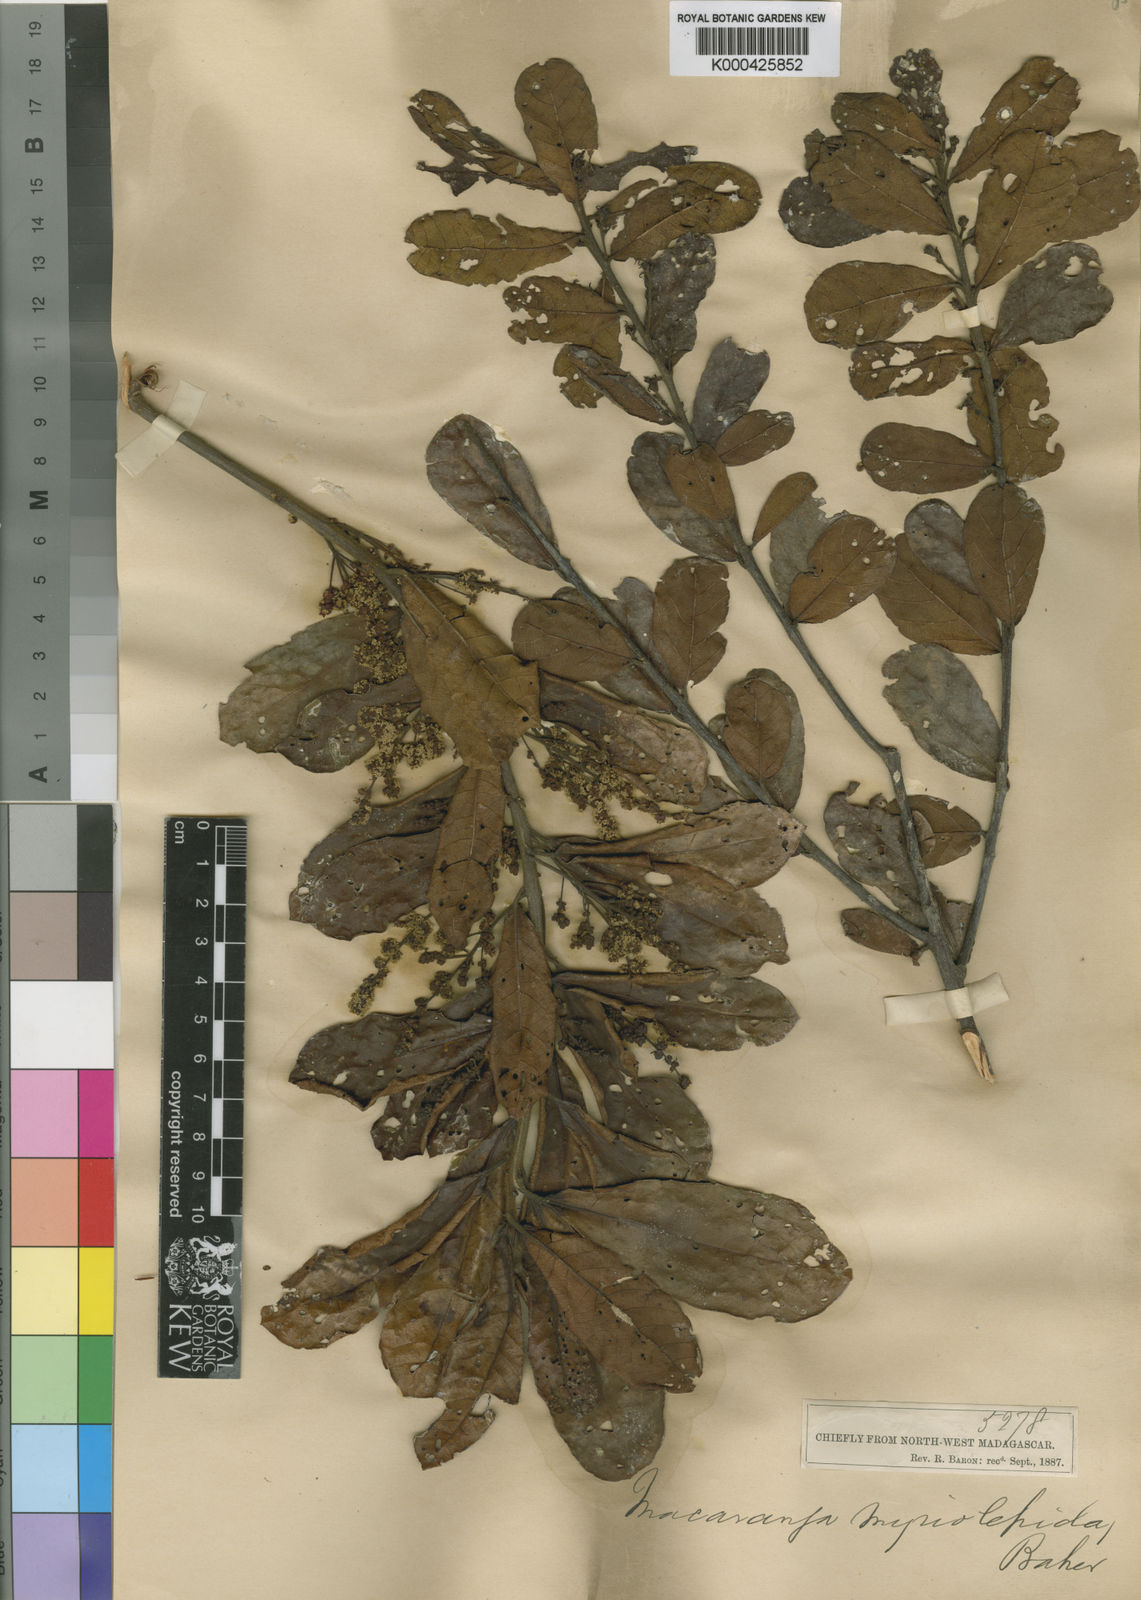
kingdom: Plantae
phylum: Tracheophyta
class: Magnoliopsida
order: Malpighiales
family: Euphorbiaceae
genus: Macaranga
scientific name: Macaranga myriolepida
